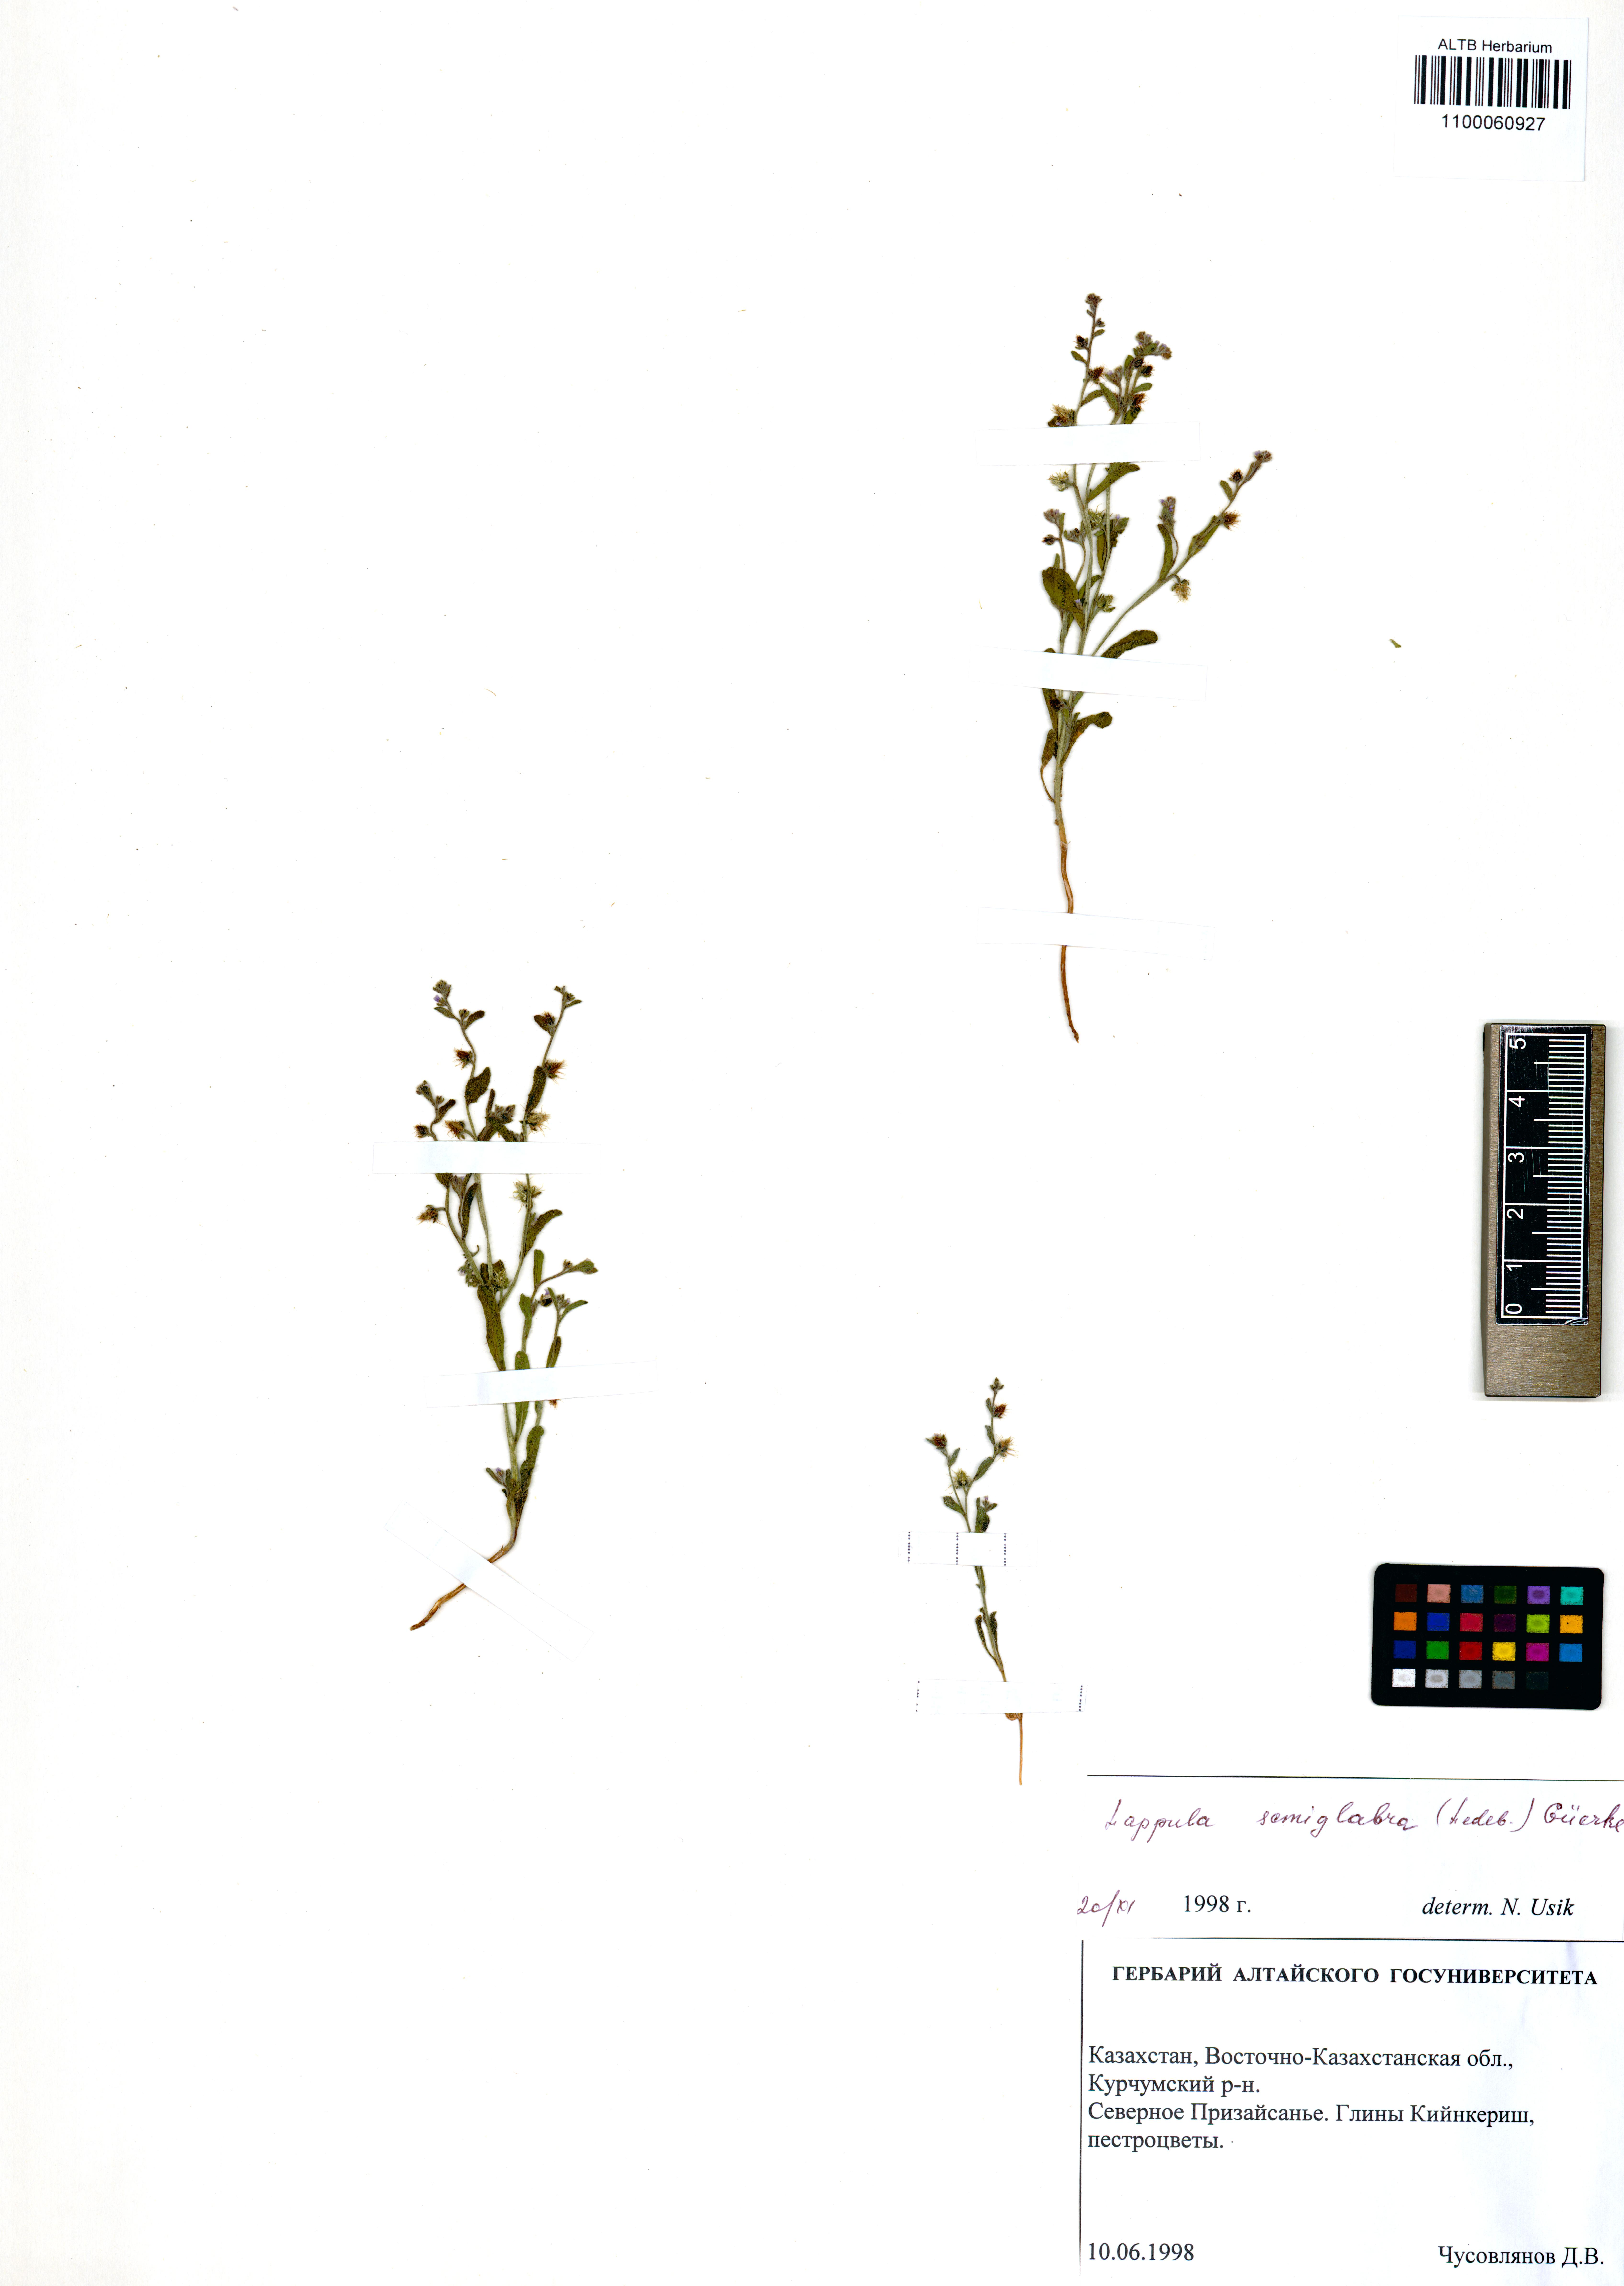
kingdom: Plantae
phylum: Tracheophyta
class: Magnoliopsida
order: Boraginales
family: Boraginaceae
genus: Lappula
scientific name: Lappula patula
